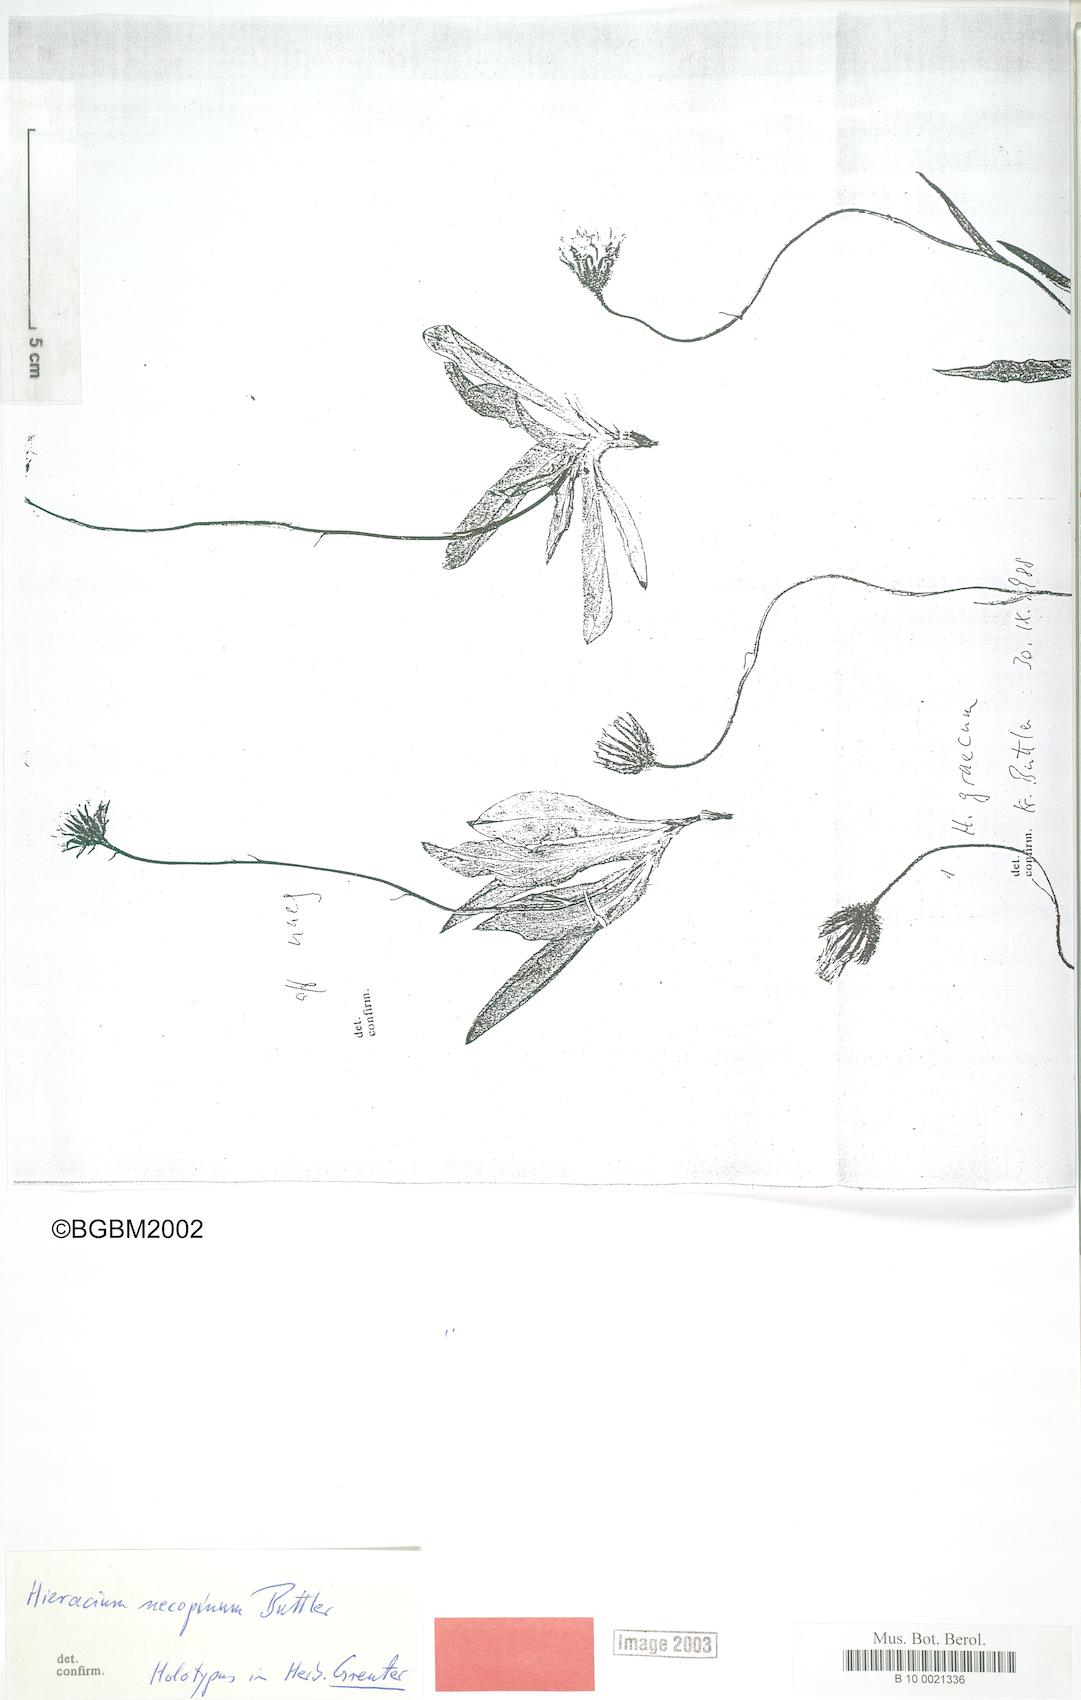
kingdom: Plantae
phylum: Tracheophyta
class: Magnoliopsida
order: Asterales
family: Asteraceae
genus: Hieracium
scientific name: Hieracium necopinum
